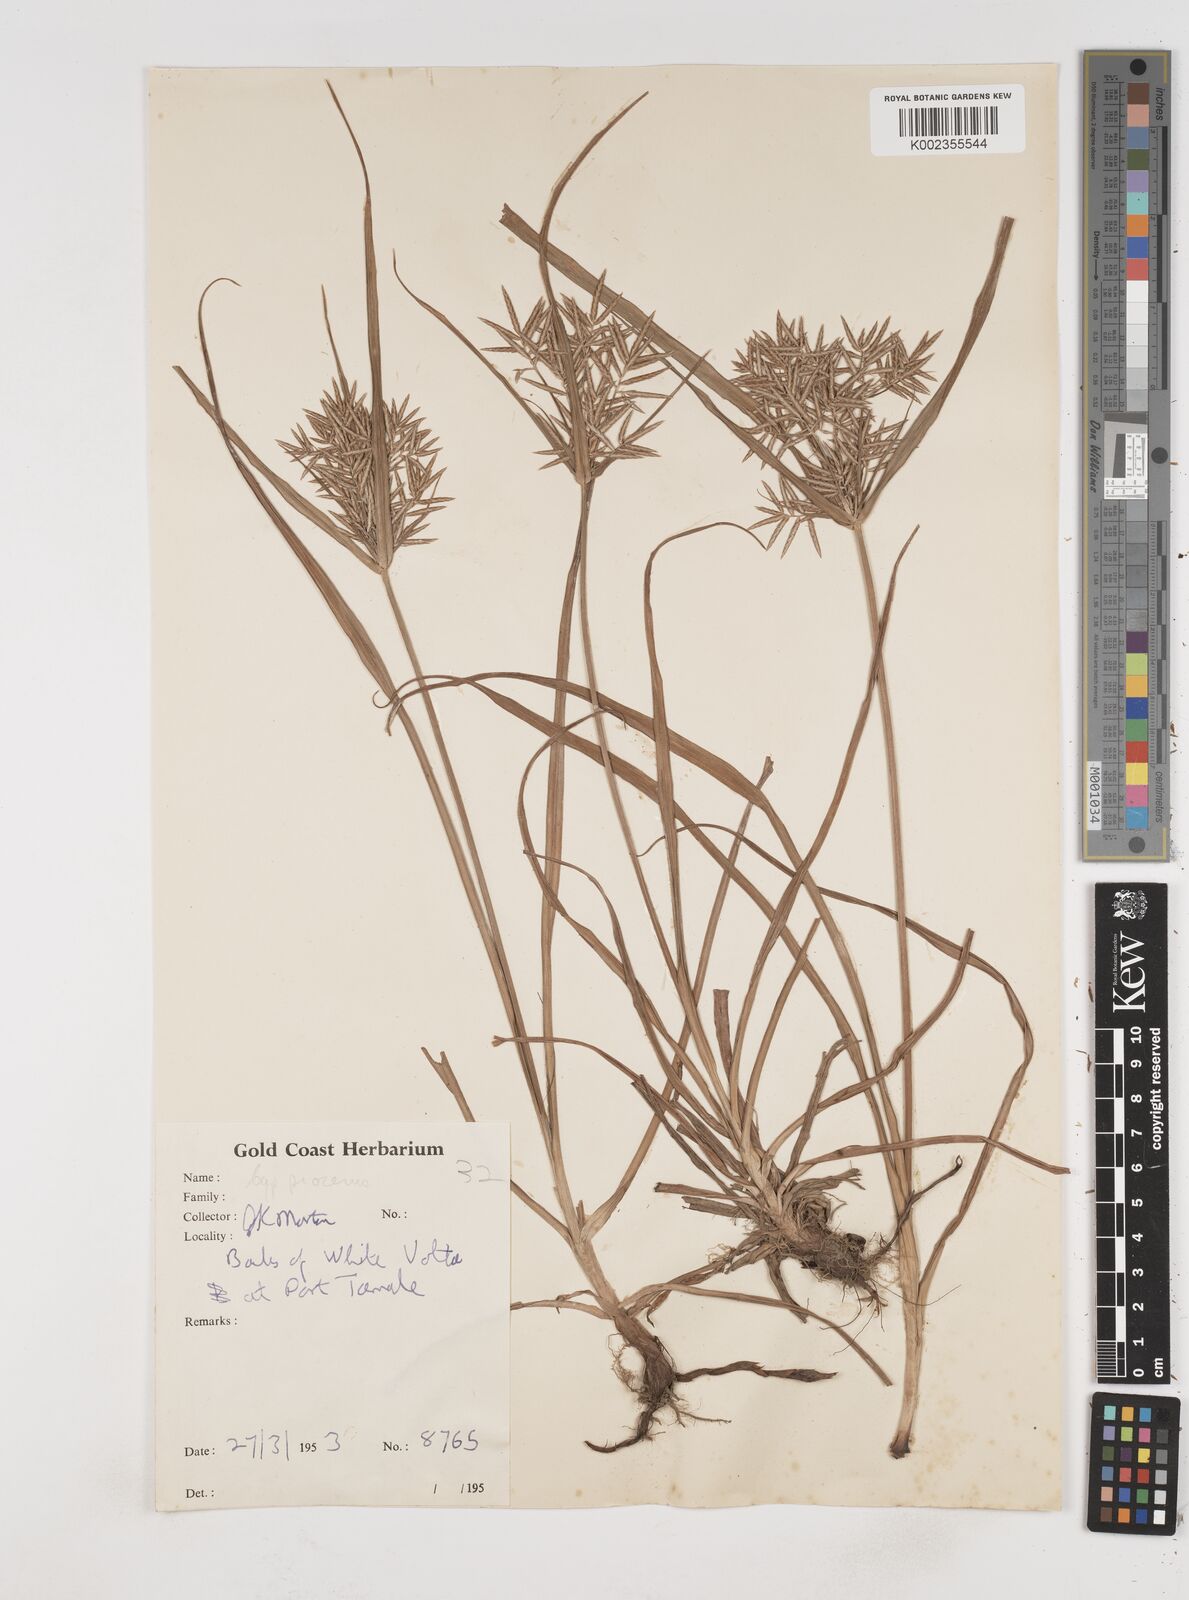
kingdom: Plantae
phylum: Tracheophyta
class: Liliopsida
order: Poales
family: Cyperaceae
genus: Cyperus
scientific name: Cyperus procerus
